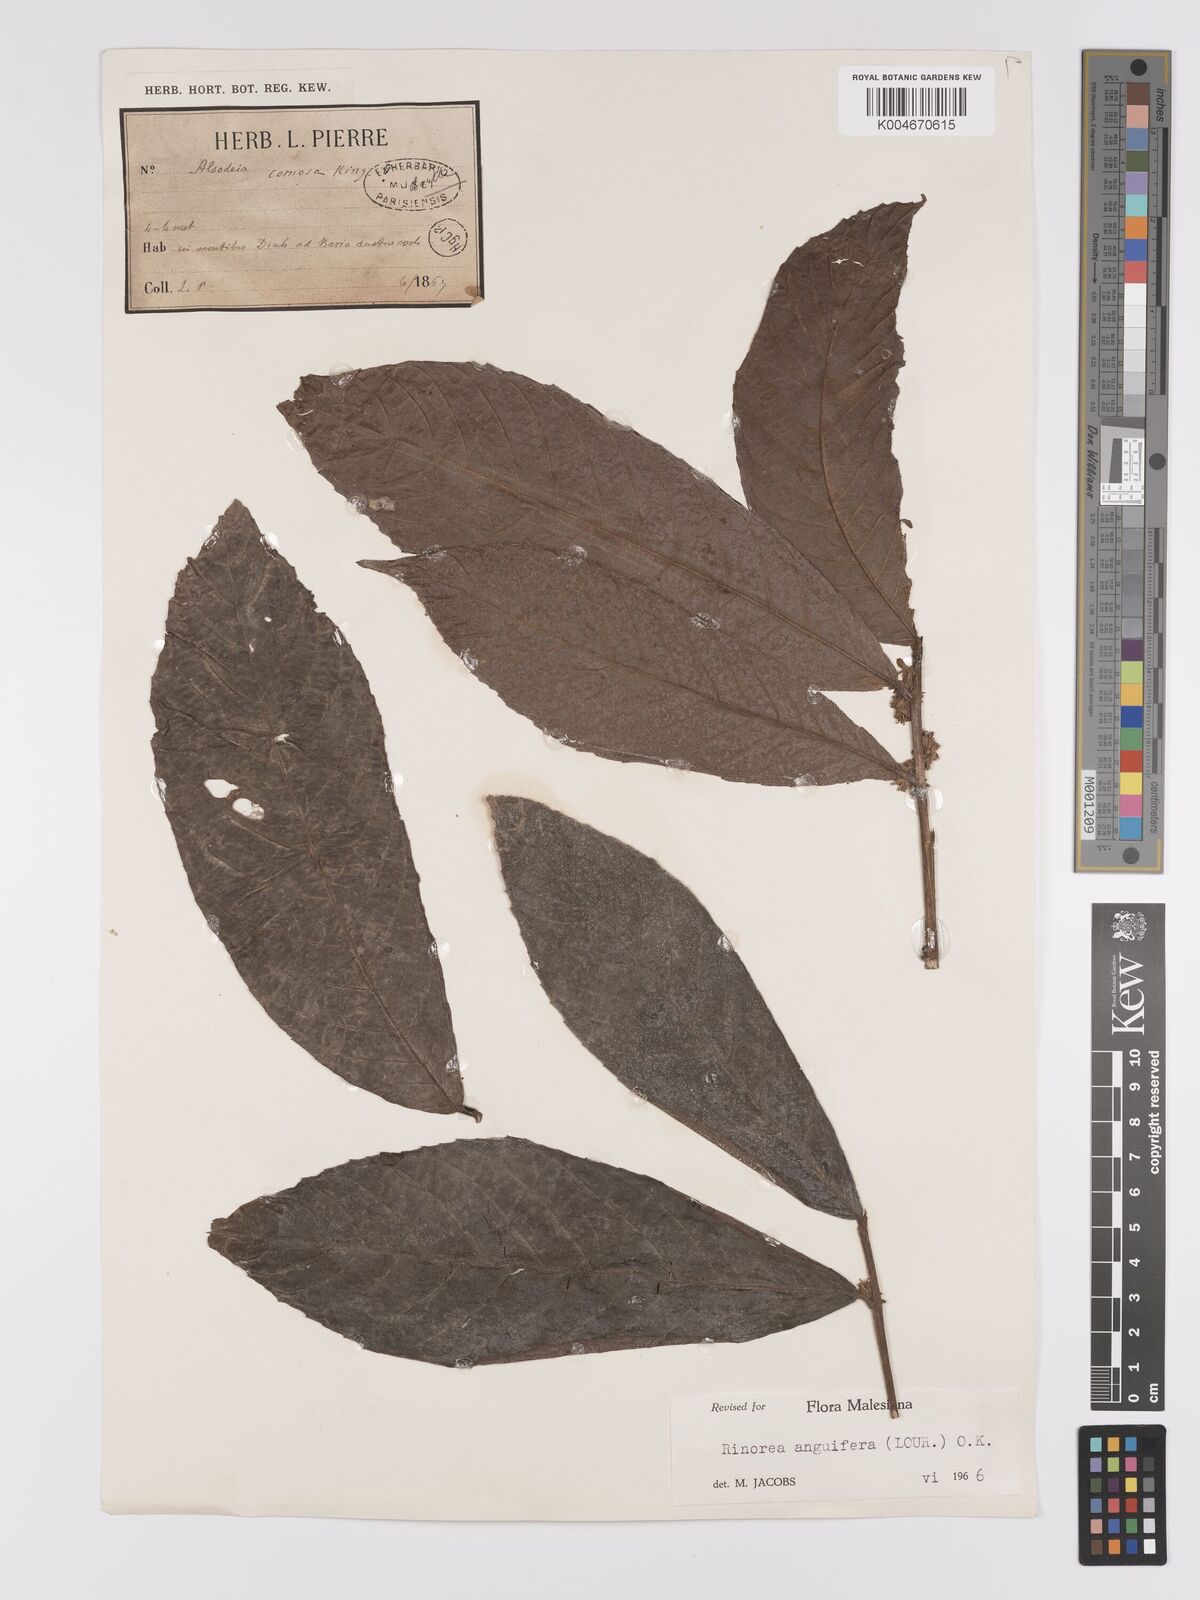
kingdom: Plantae
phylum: Tracheophyta
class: Magnoliopsida
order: Malpighiales
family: Violaceae
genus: Rinorea
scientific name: Rinorea anguifera
